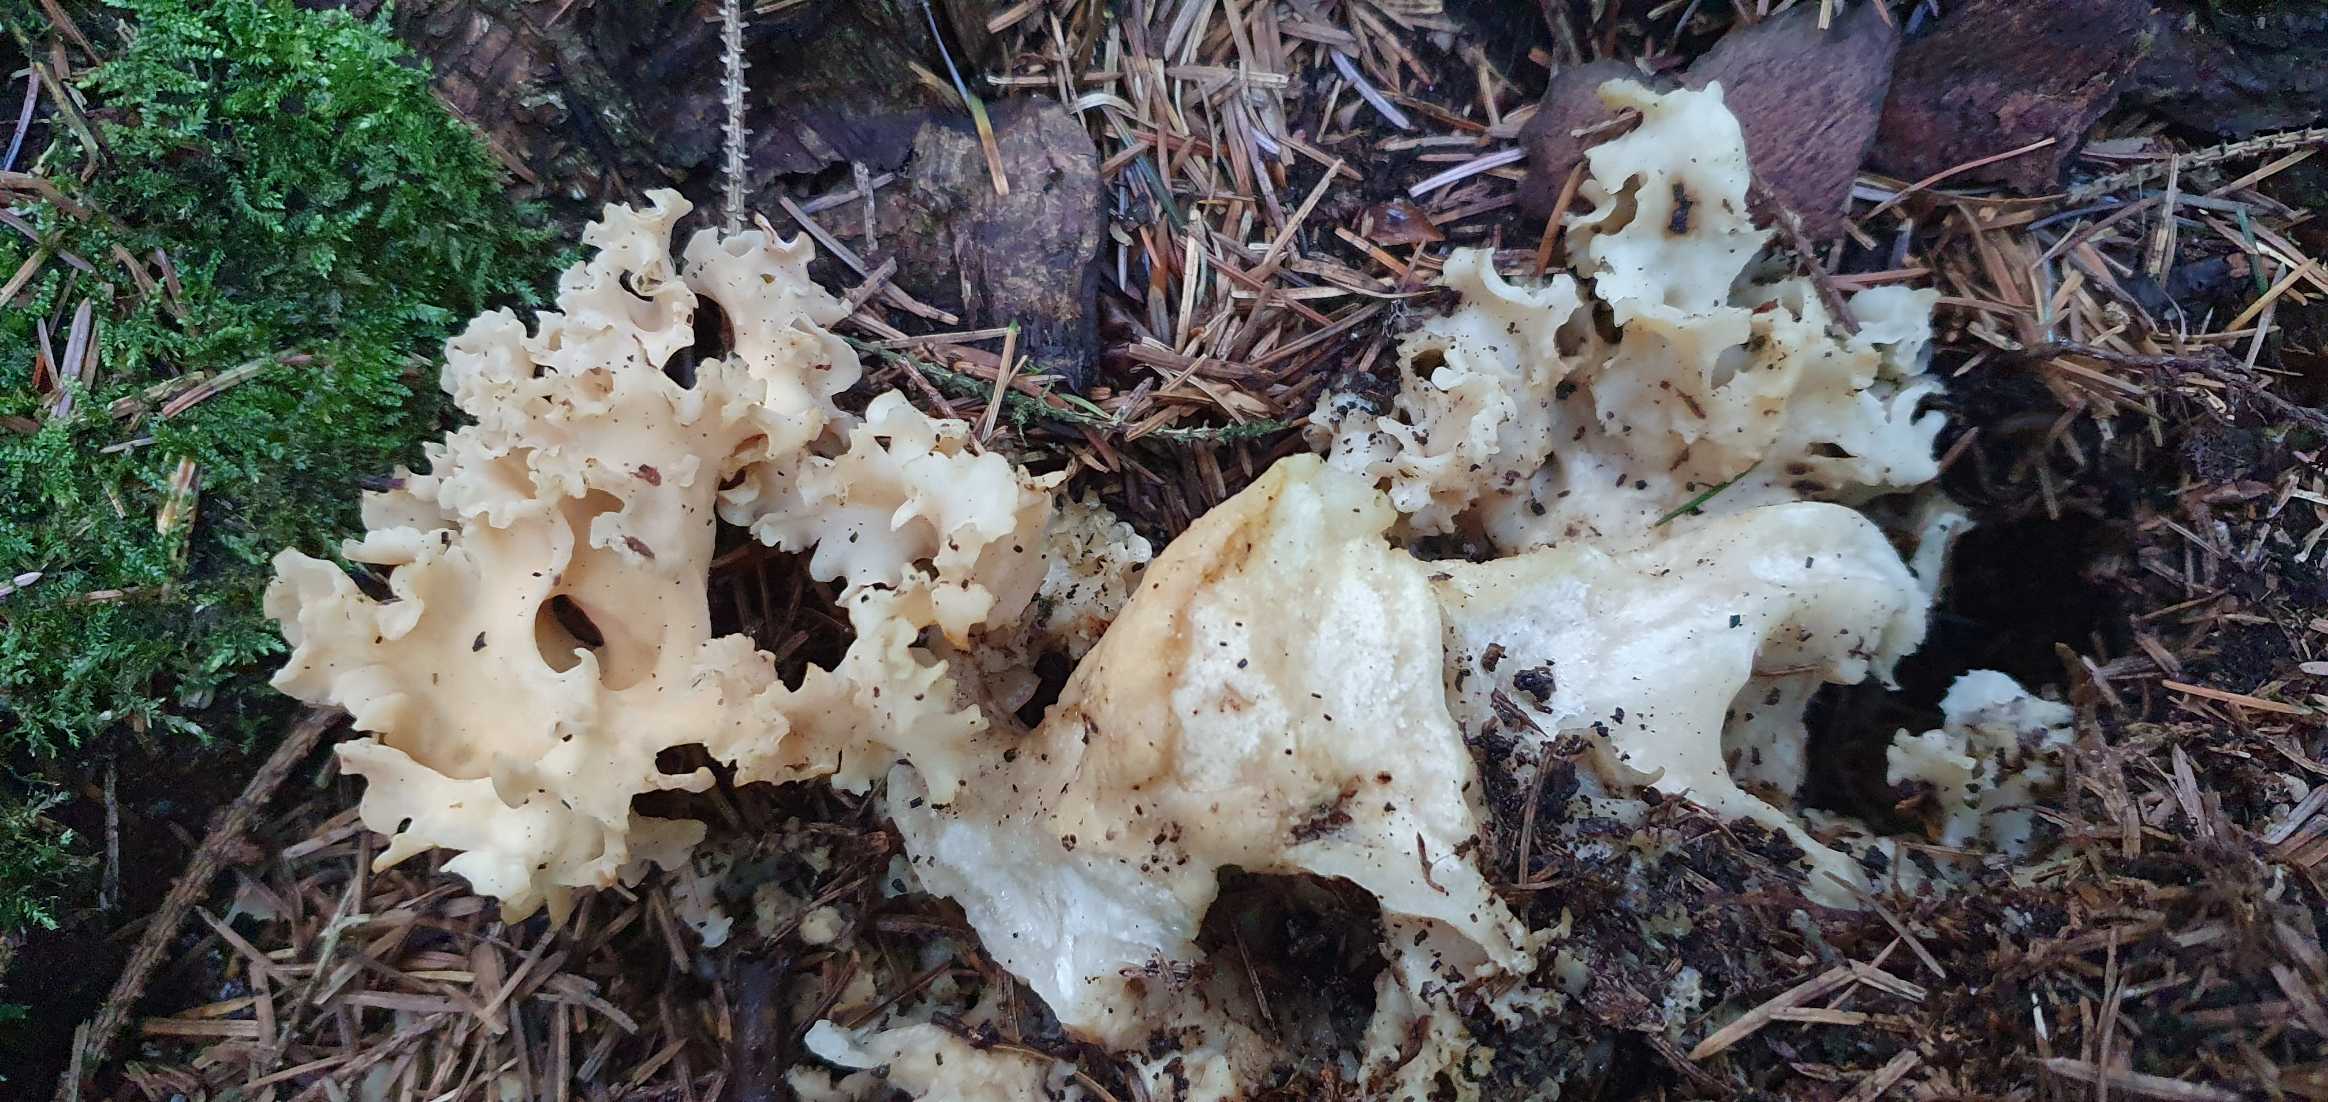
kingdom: Fungi
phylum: Basidiomycota
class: Agaricomycetes
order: Polyporales
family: Sparassidaceae
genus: Sparassis
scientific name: Sparassis crispa
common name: Kruset blomkålssvamp
